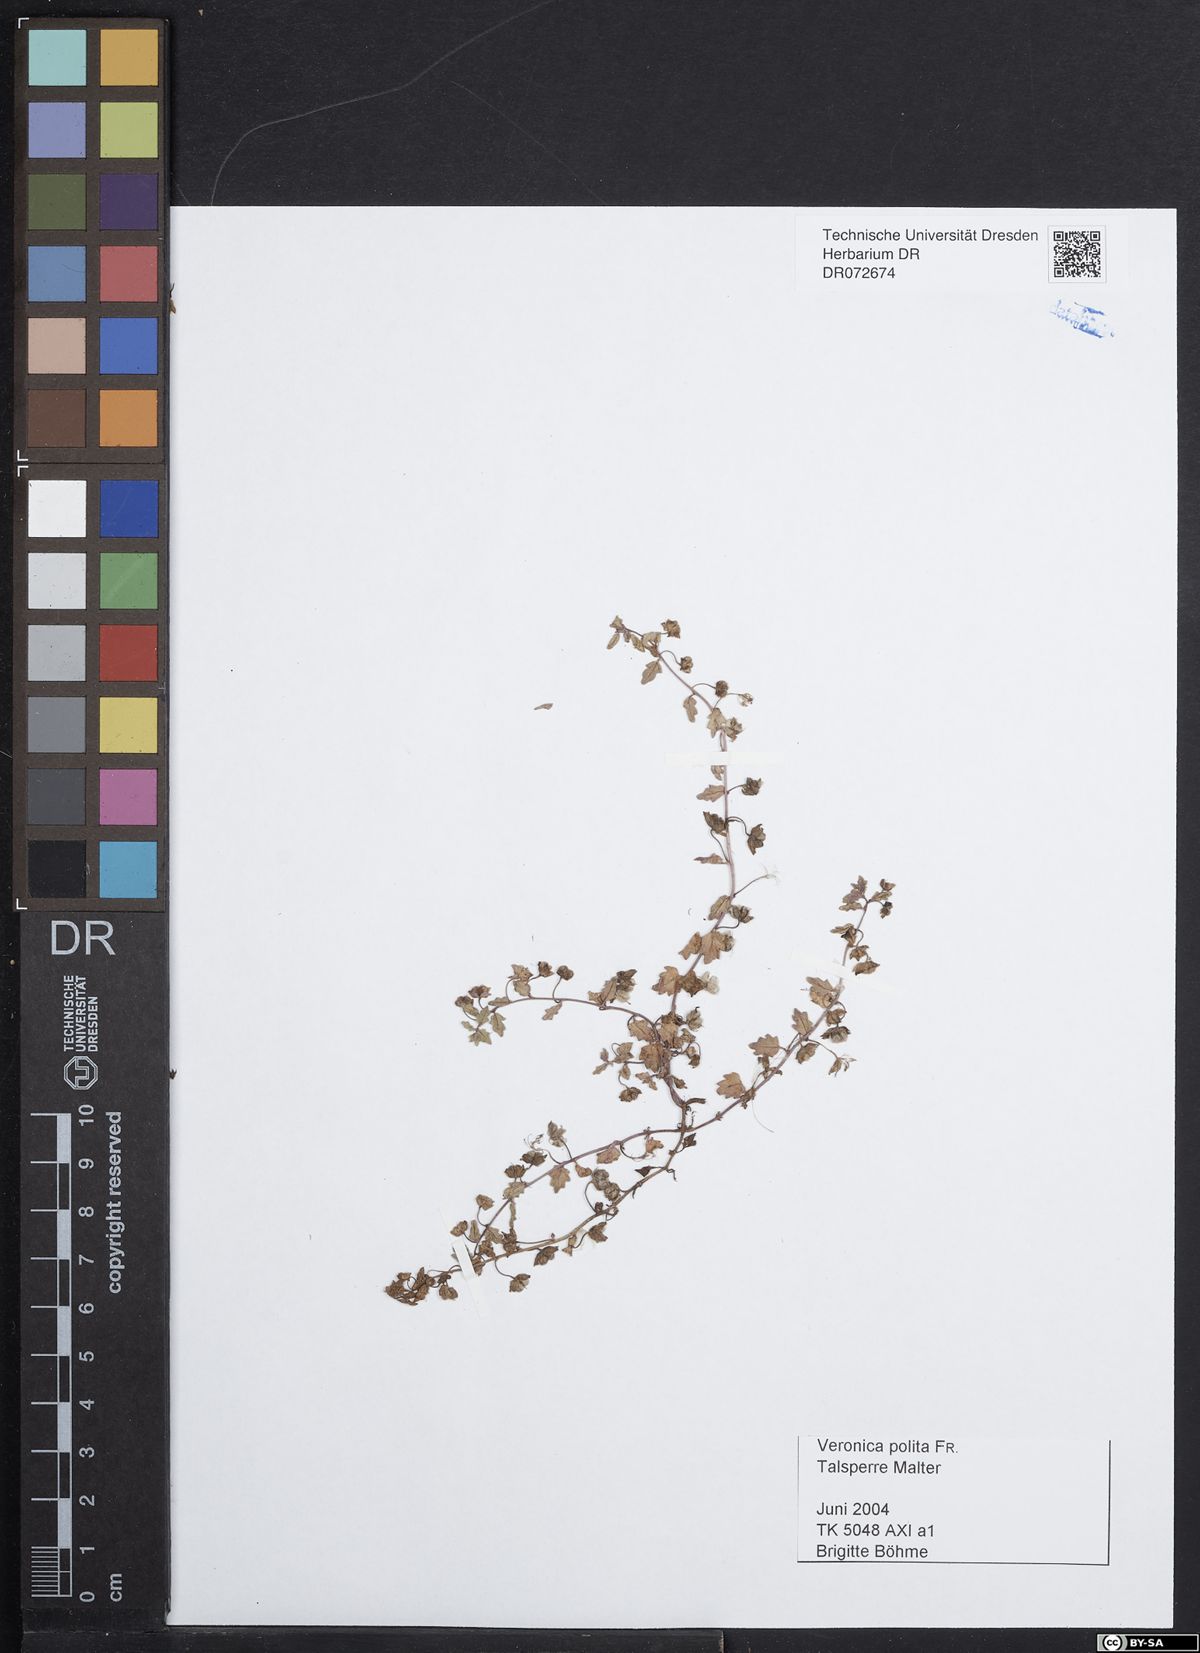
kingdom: Plantae
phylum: Tracheophyta
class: Magnoliopsida
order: Lamiales
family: Plantaginaceae
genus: Veronica
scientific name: Veronica polita
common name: Grey field-speedwell
